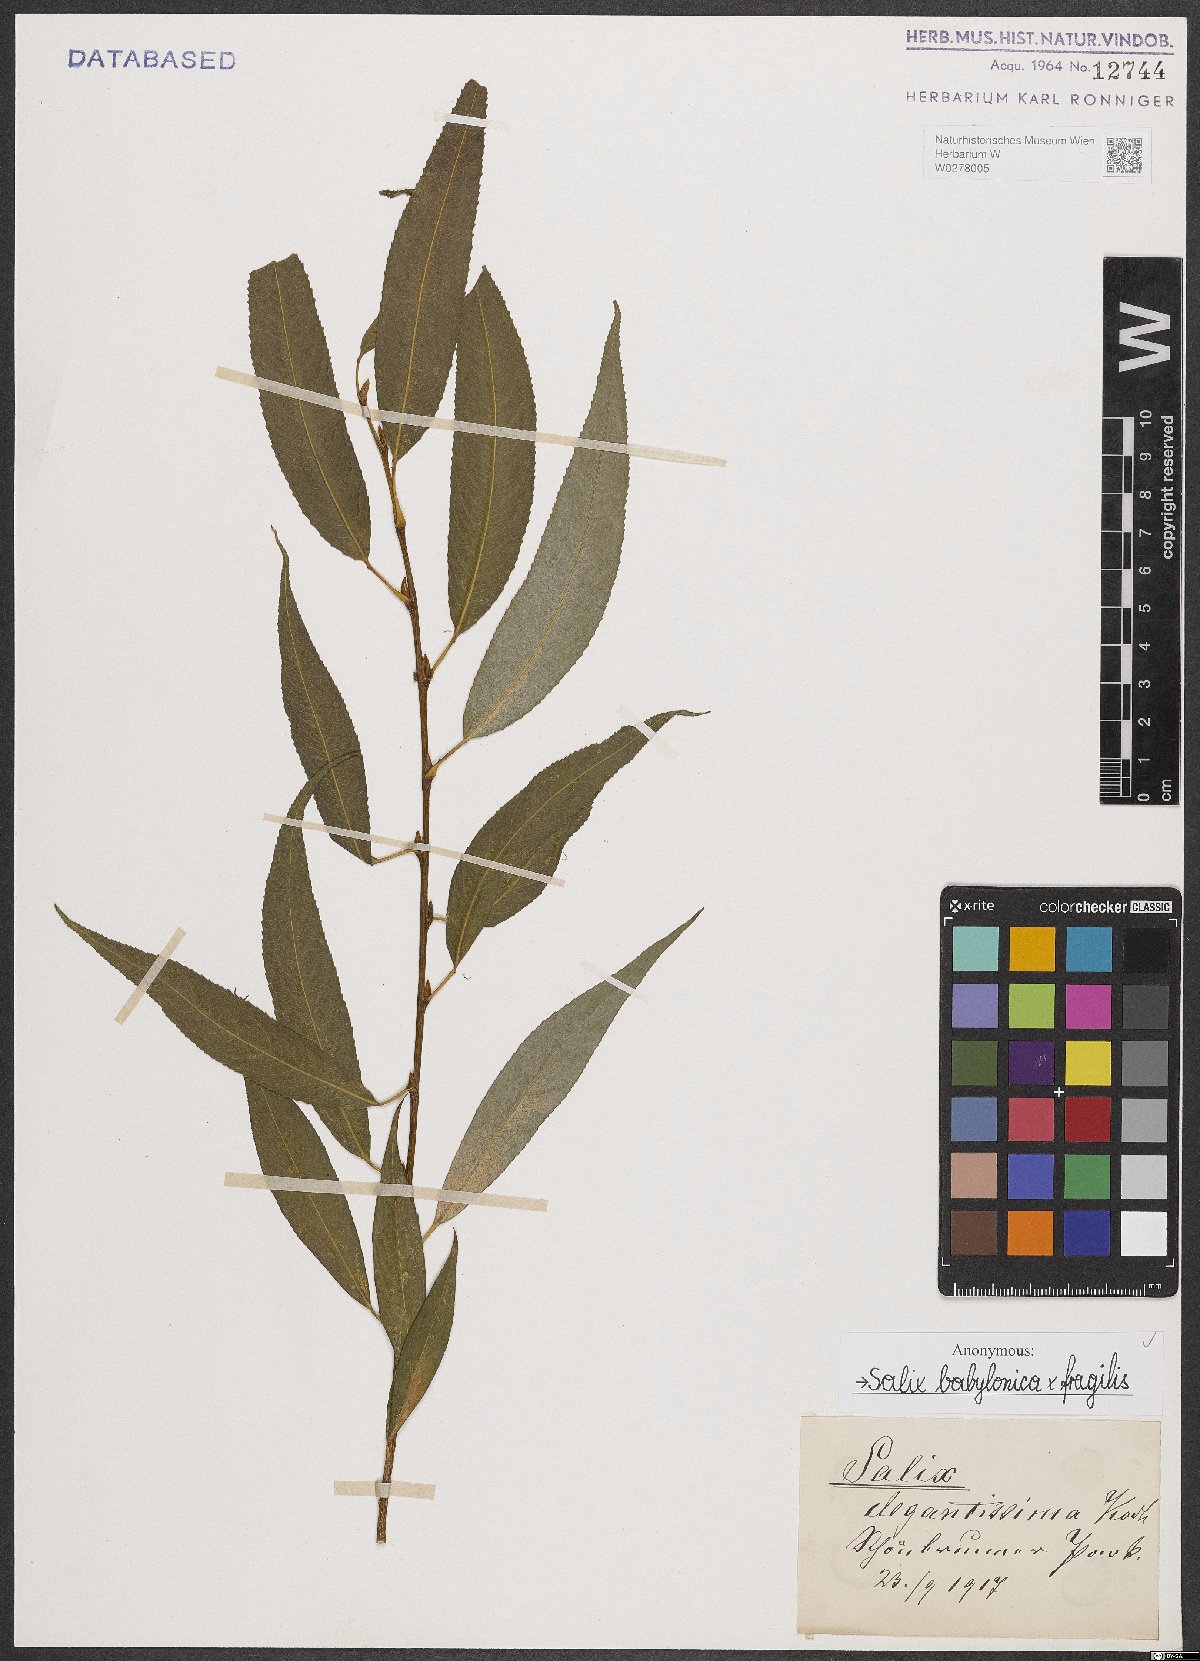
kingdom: Plantae
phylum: Tracheophyta
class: Magnoliopsida
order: Malpighiales
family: Salicaceae
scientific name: Salicaceae
